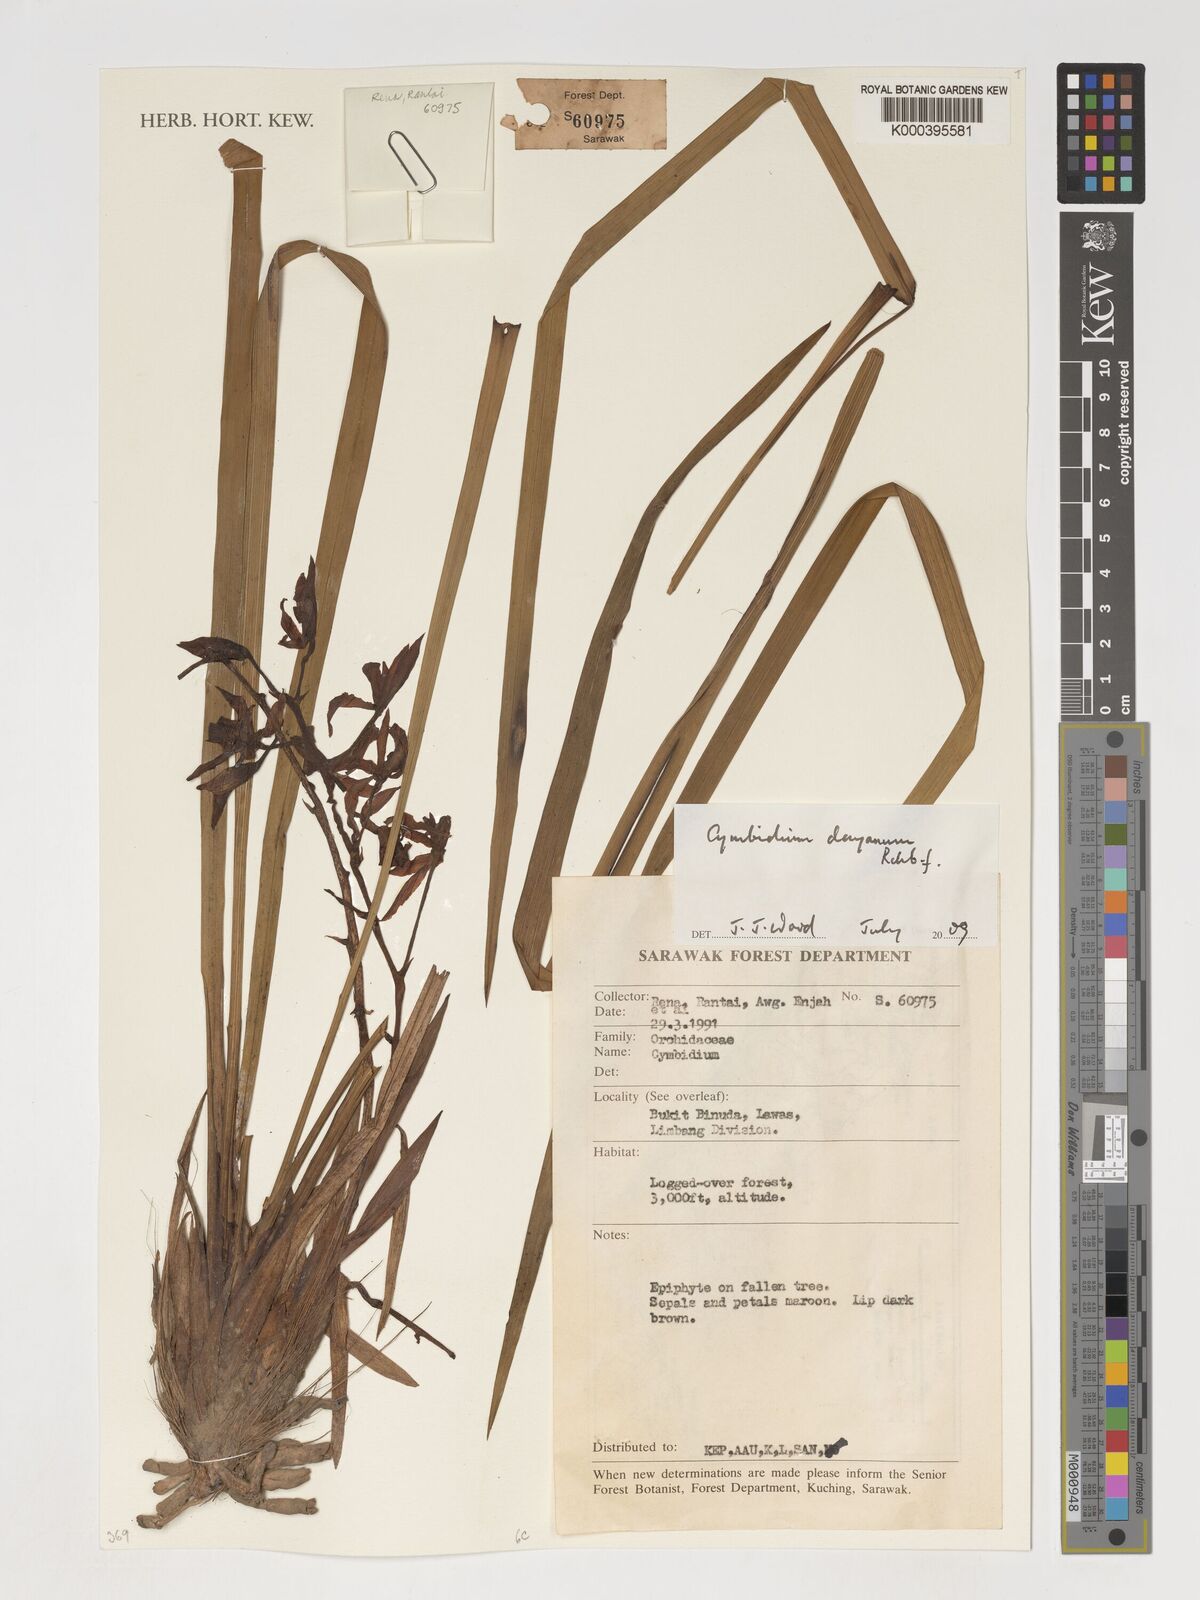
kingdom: Plantae
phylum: Tracheophyta
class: Liliopsida
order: Asparagales
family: Orchidaceae
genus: Cymbidium
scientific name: Cymbidium dayanum
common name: Orchid
